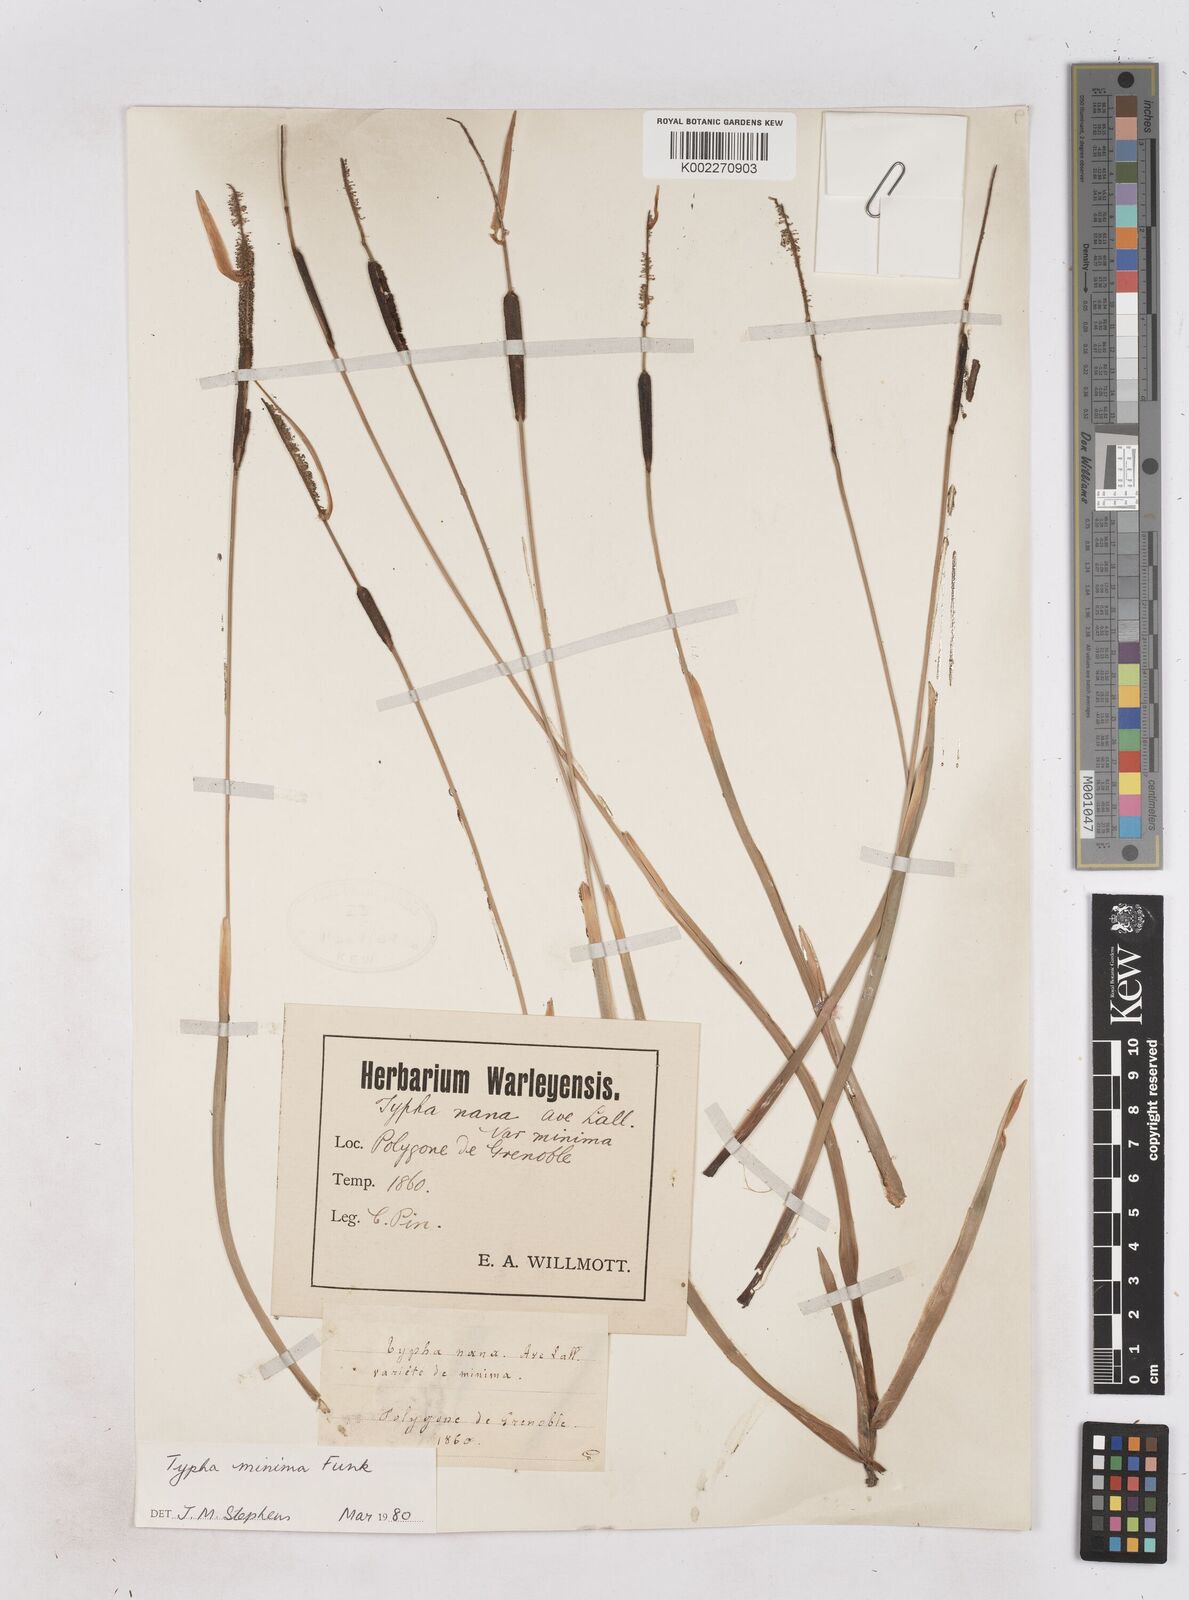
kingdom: Plantae
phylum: Tracheophyta
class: Liliopsida
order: Poales
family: Typhaceae
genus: Typha
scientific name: Typha
